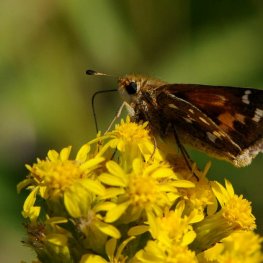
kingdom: Animalia
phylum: Arthropoda
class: Insecta
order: Lepidoptera
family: Hesperiidae
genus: Hesperia
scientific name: Hesperia comma
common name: Common Branded Skipper
